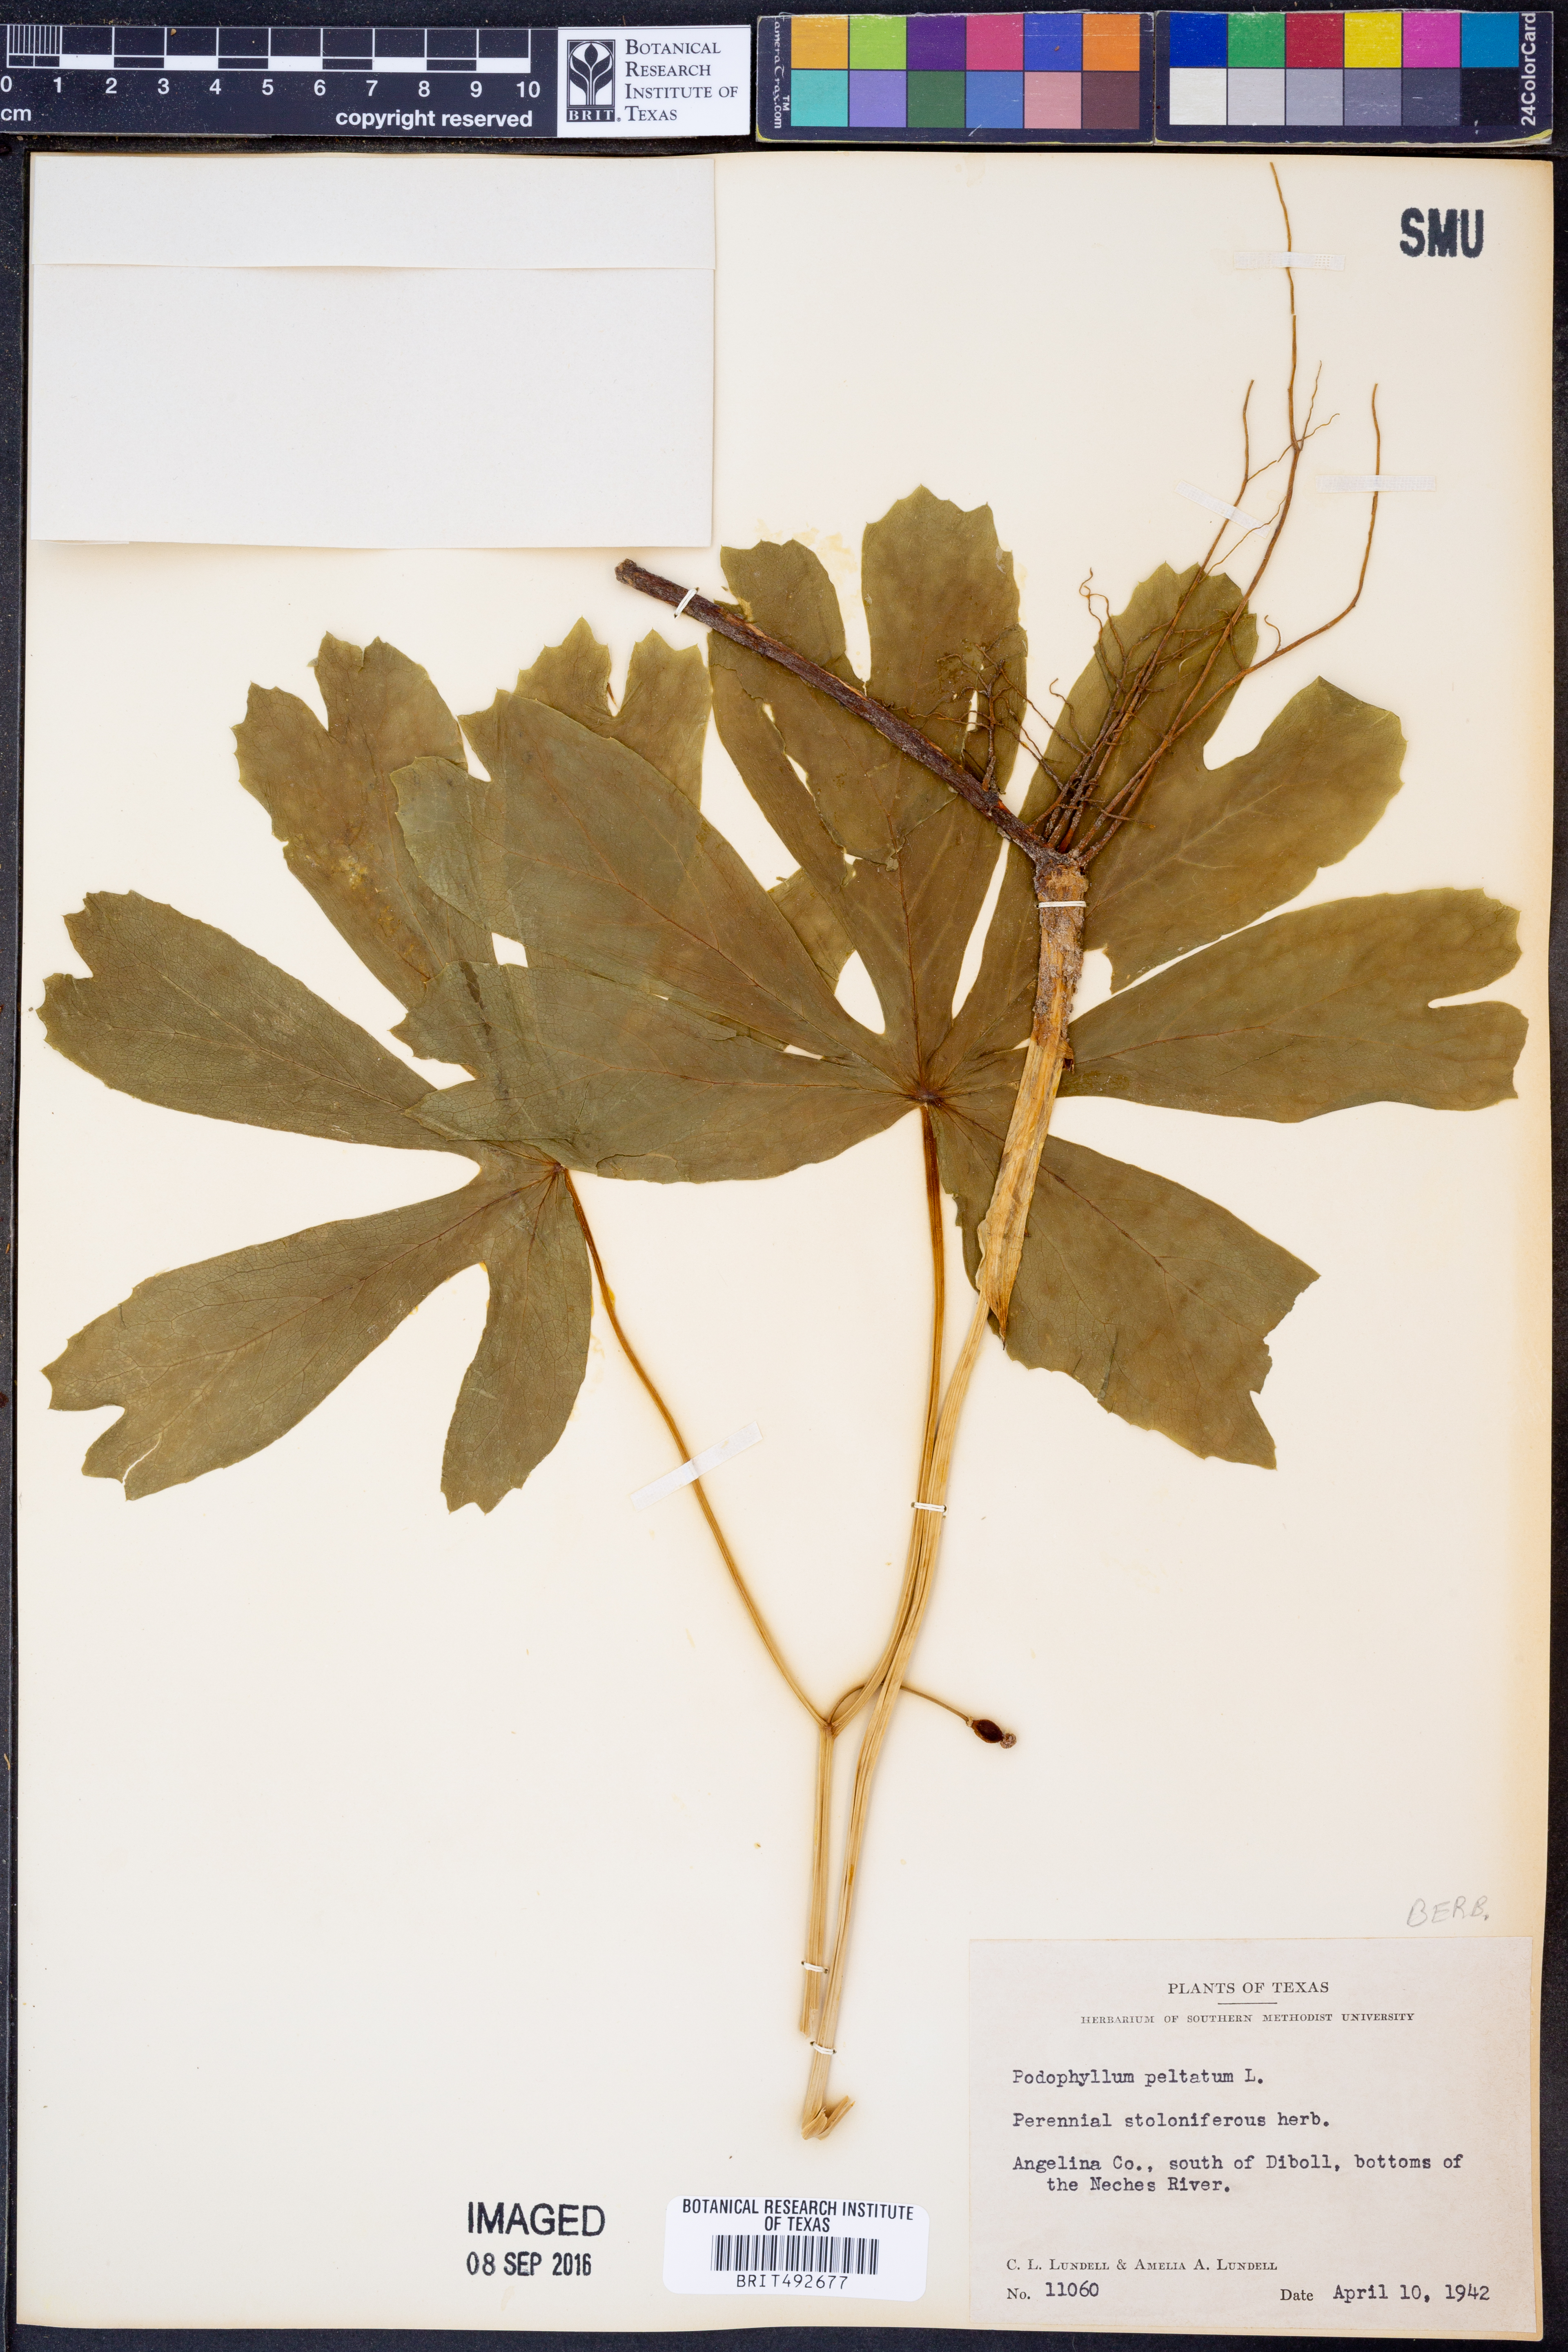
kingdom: Plantae
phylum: Tracheophyta
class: Magnoliopsida
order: Ranunculales
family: Berberidaceae
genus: Podophyllum
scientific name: Podophyllum peltatum
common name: Wild mandrake
